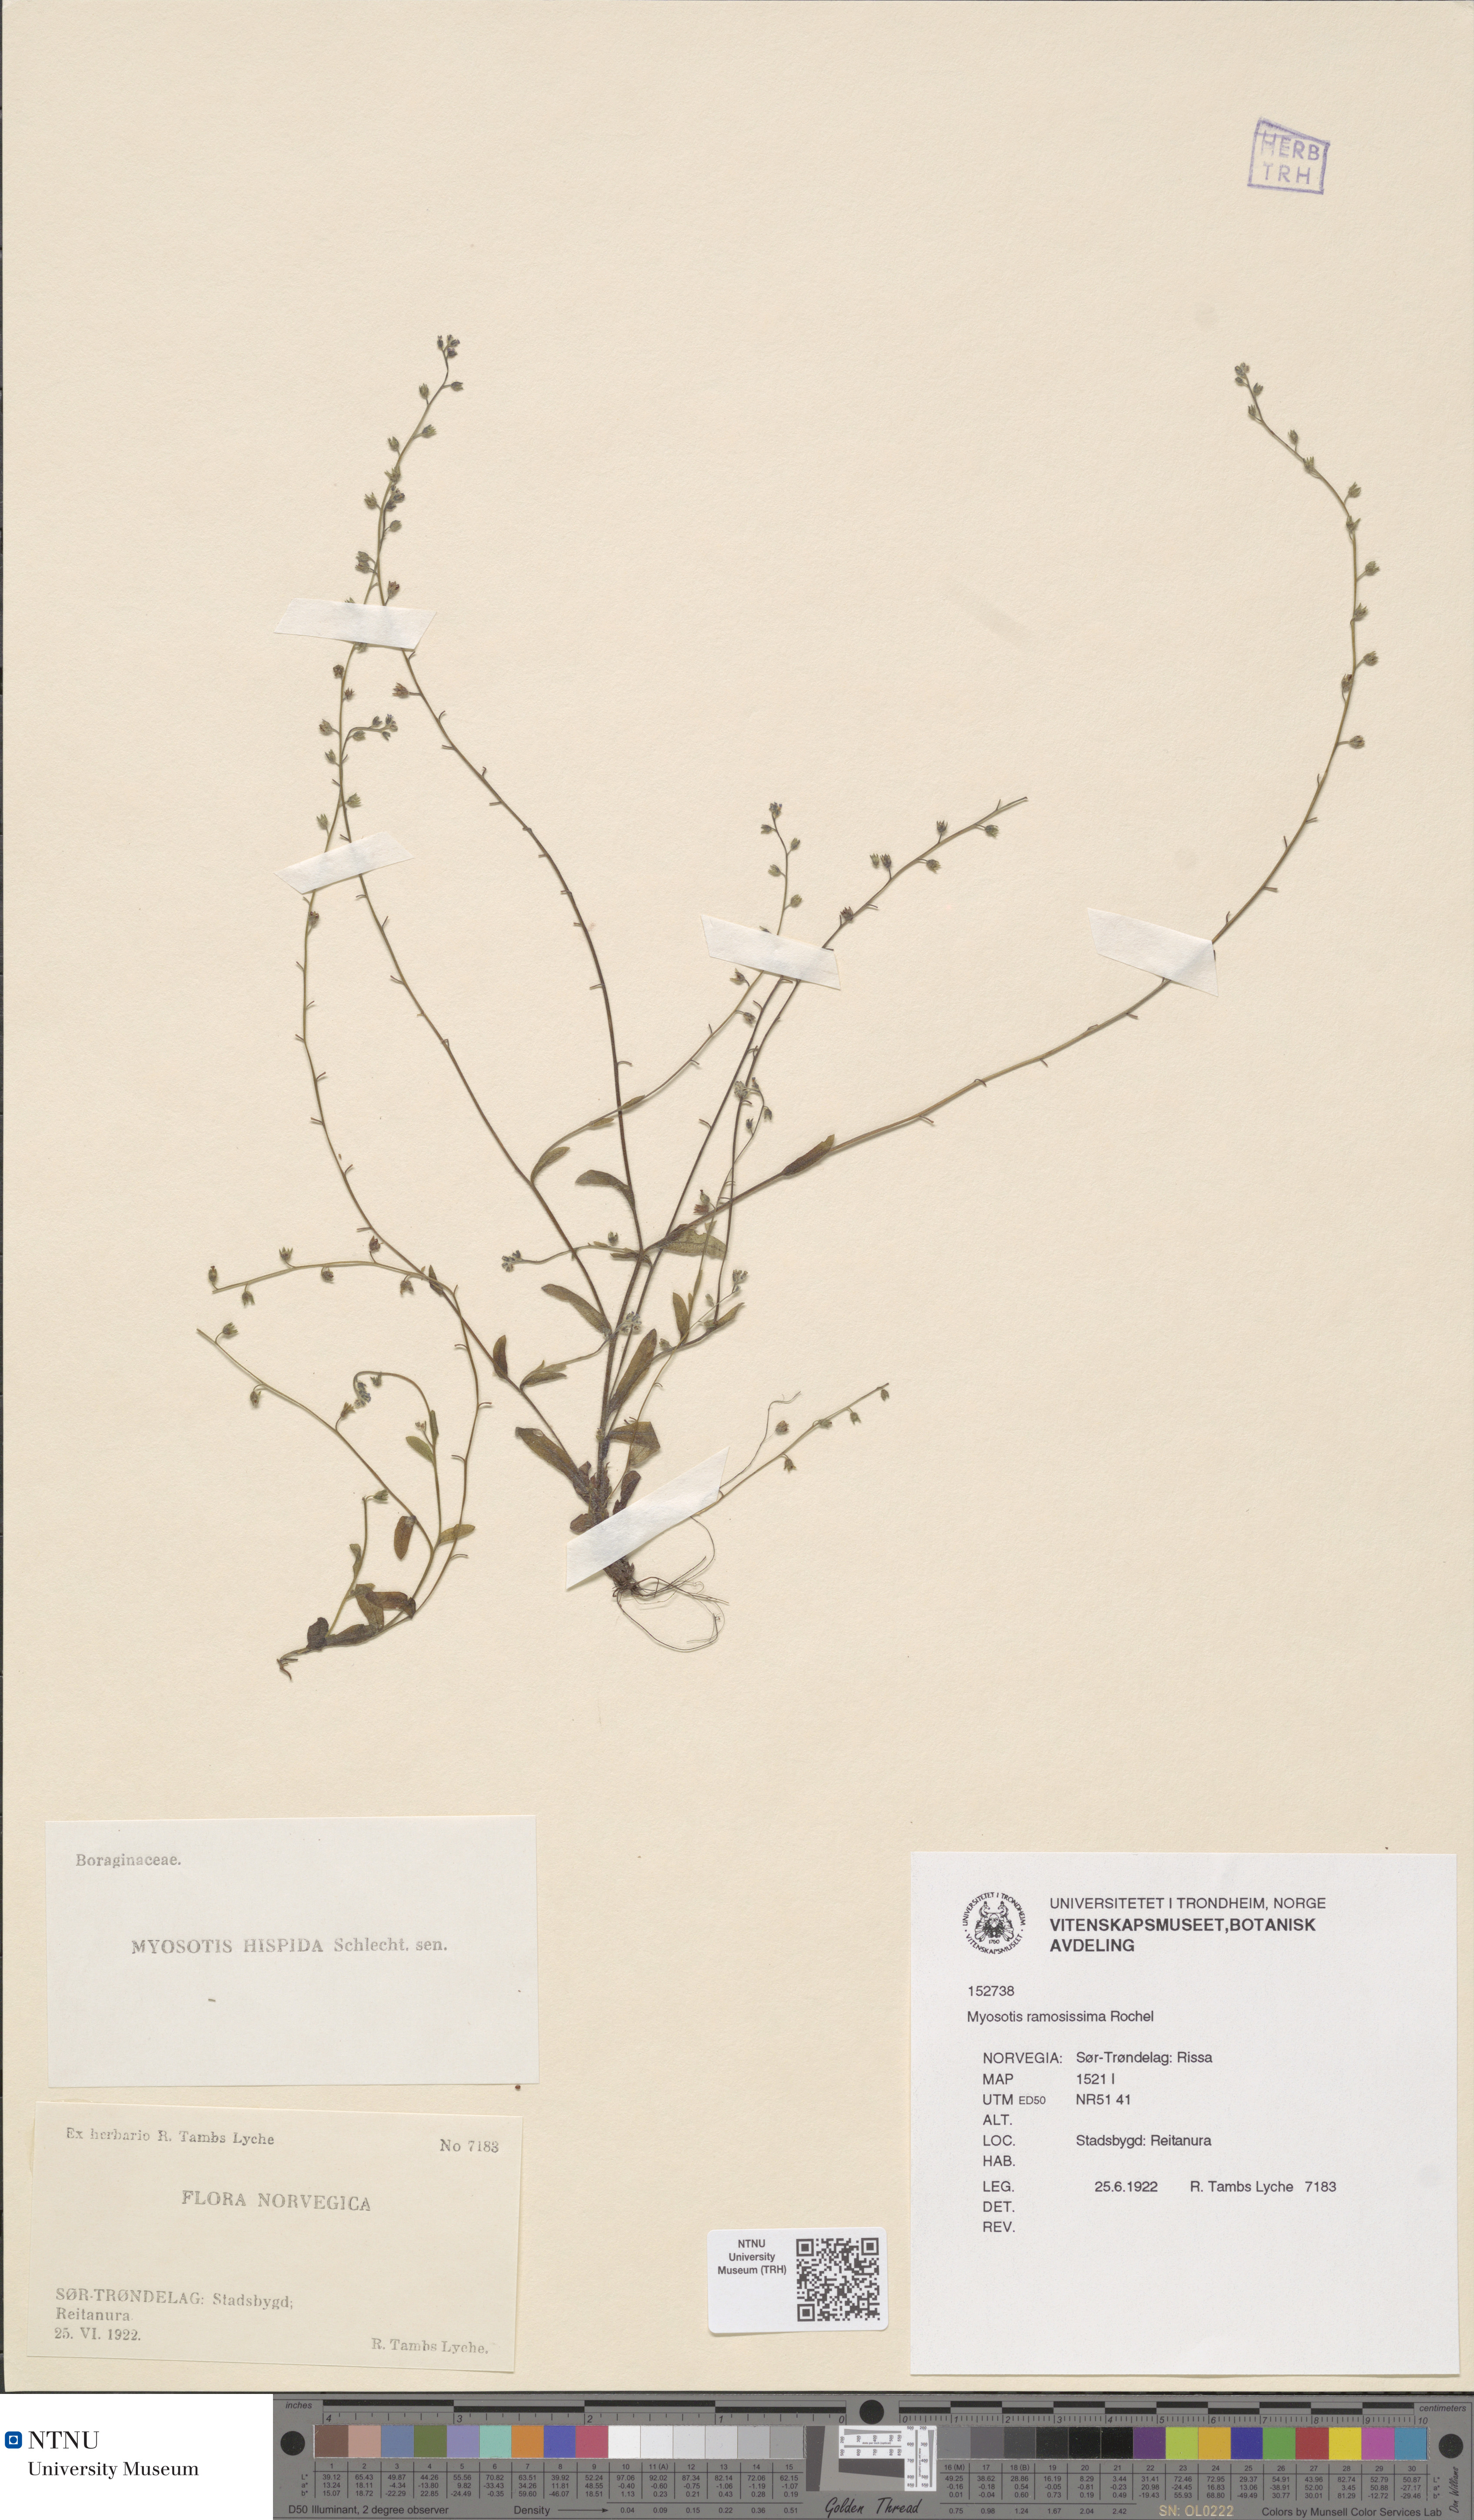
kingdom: Plantae
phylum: Tracheophyta
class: Magnoliopsida
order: Boraginales
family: Boraginaceae
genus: Myosotis
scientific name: Myosotis ramosissima
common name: Early forget-me-not
